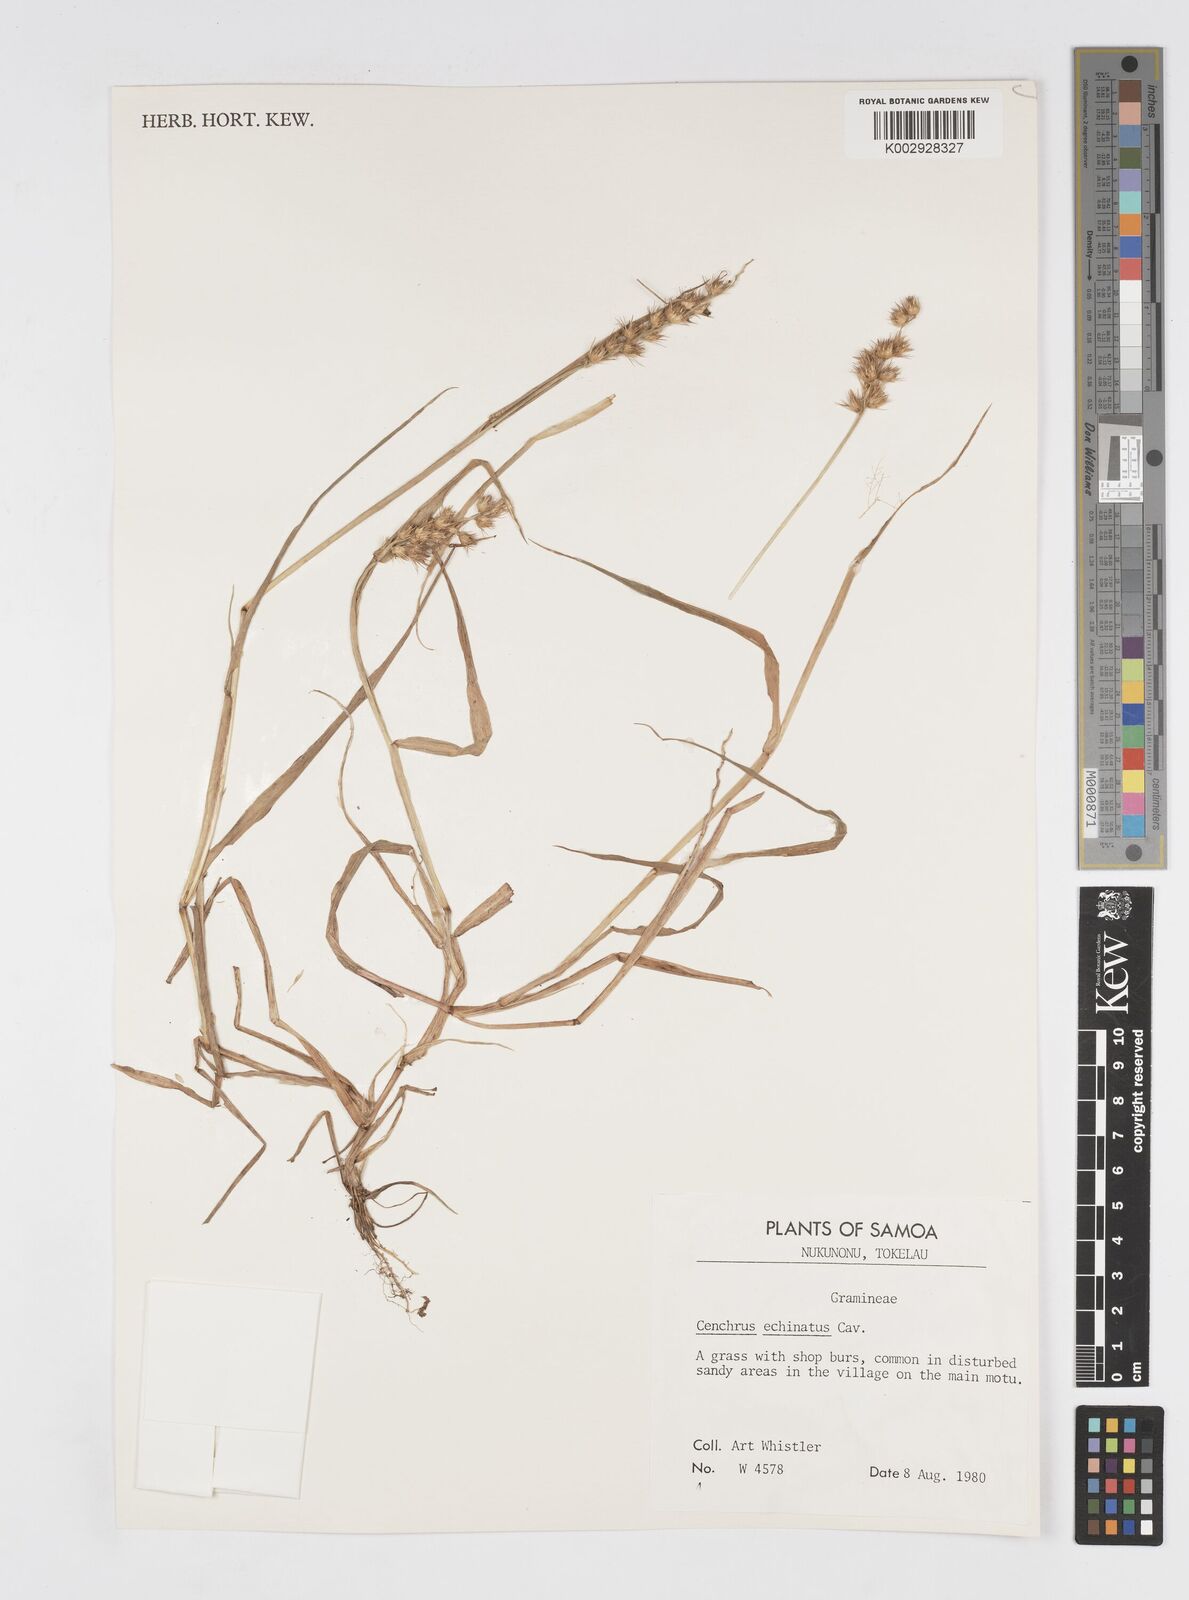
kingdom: Plantae
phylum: Tracheophyta
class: Liliopsida
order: Poales
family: Poaceae
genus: Cenchrus
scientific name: Cenchrus echinatus
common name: Southern sandbur
